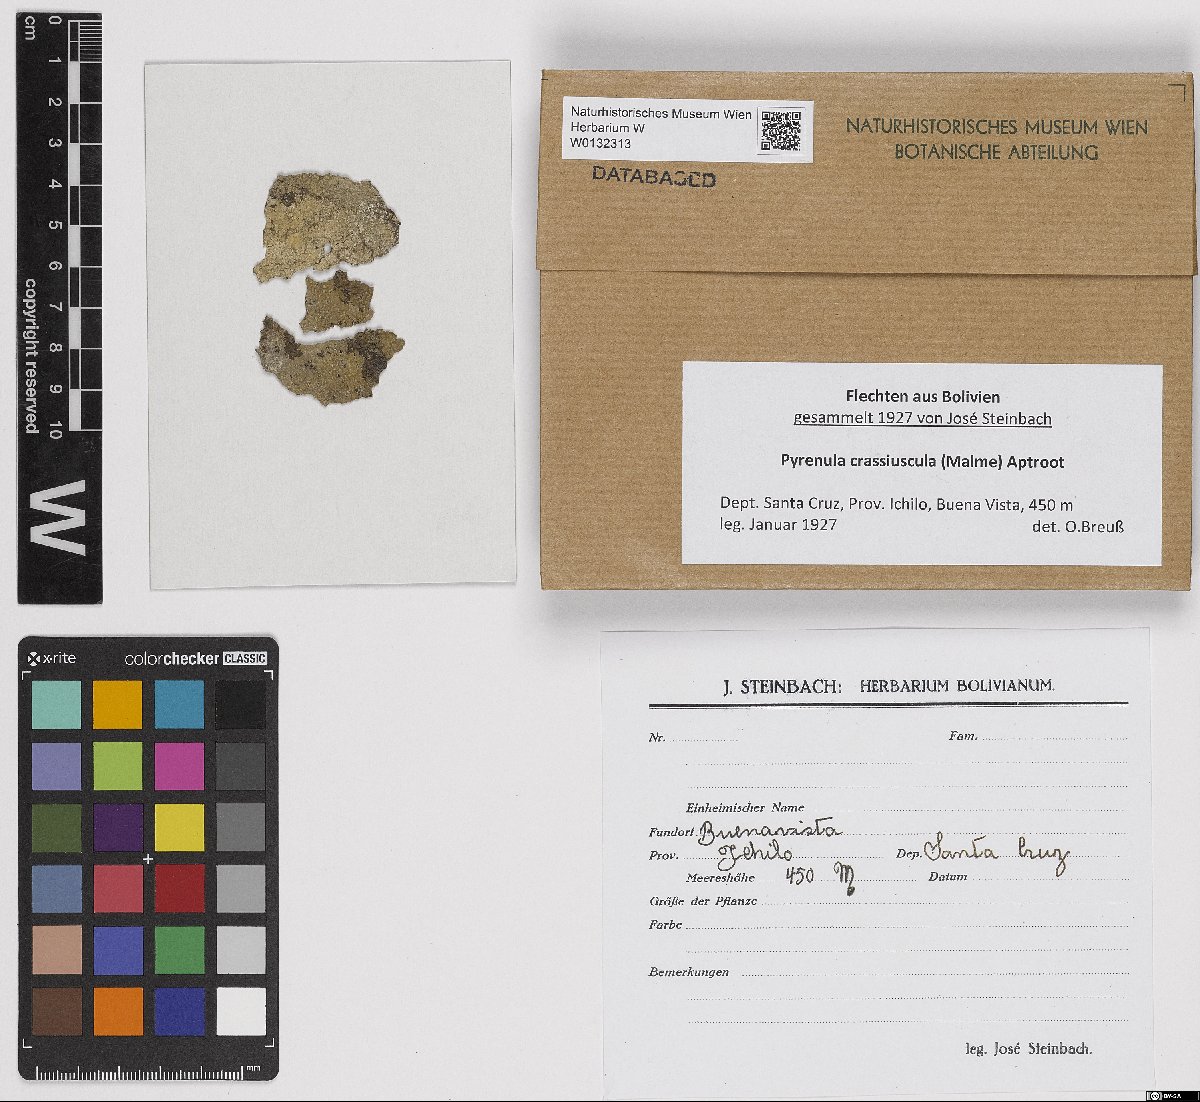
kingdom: Fungi
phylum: Ascomycota
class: Eurotiomycetes
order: Pyrenulales
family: Pyrenulaceae
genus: Pyrenula
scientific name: Pyrenula crassiuscula
